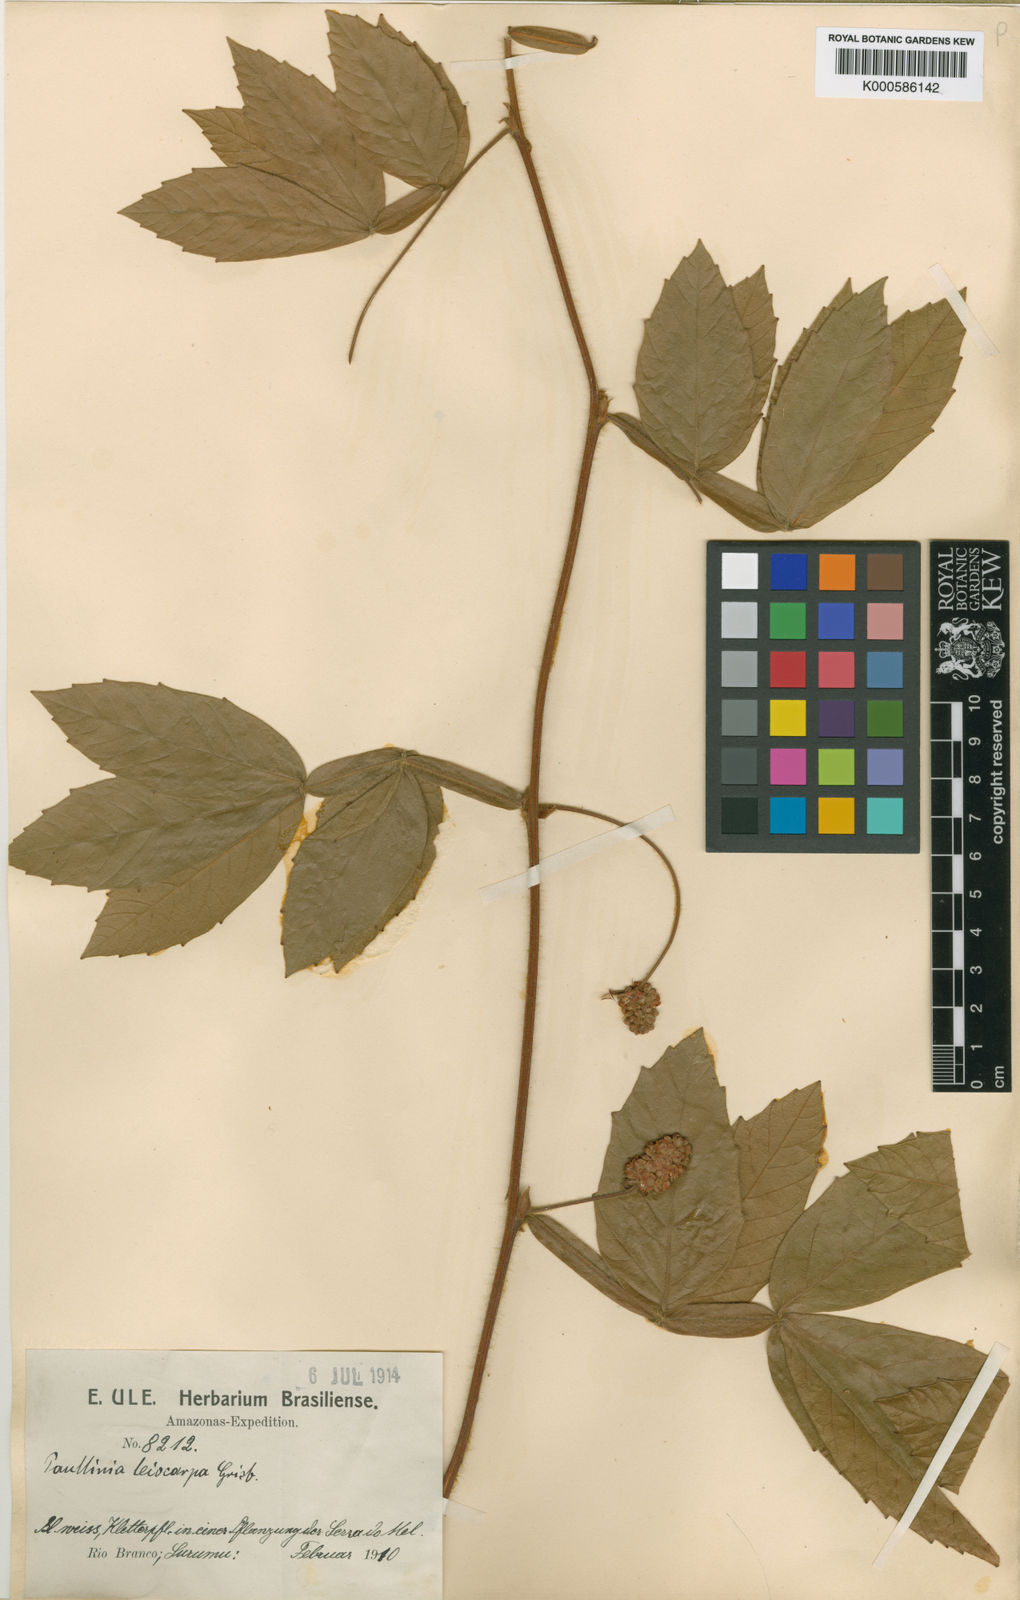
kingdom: Plantae
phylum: Tracheophyta
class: Magnoliopsida
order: Sapindales
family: Sapindaceae
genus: Paullinia
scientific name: Paullinia leiocarpa
